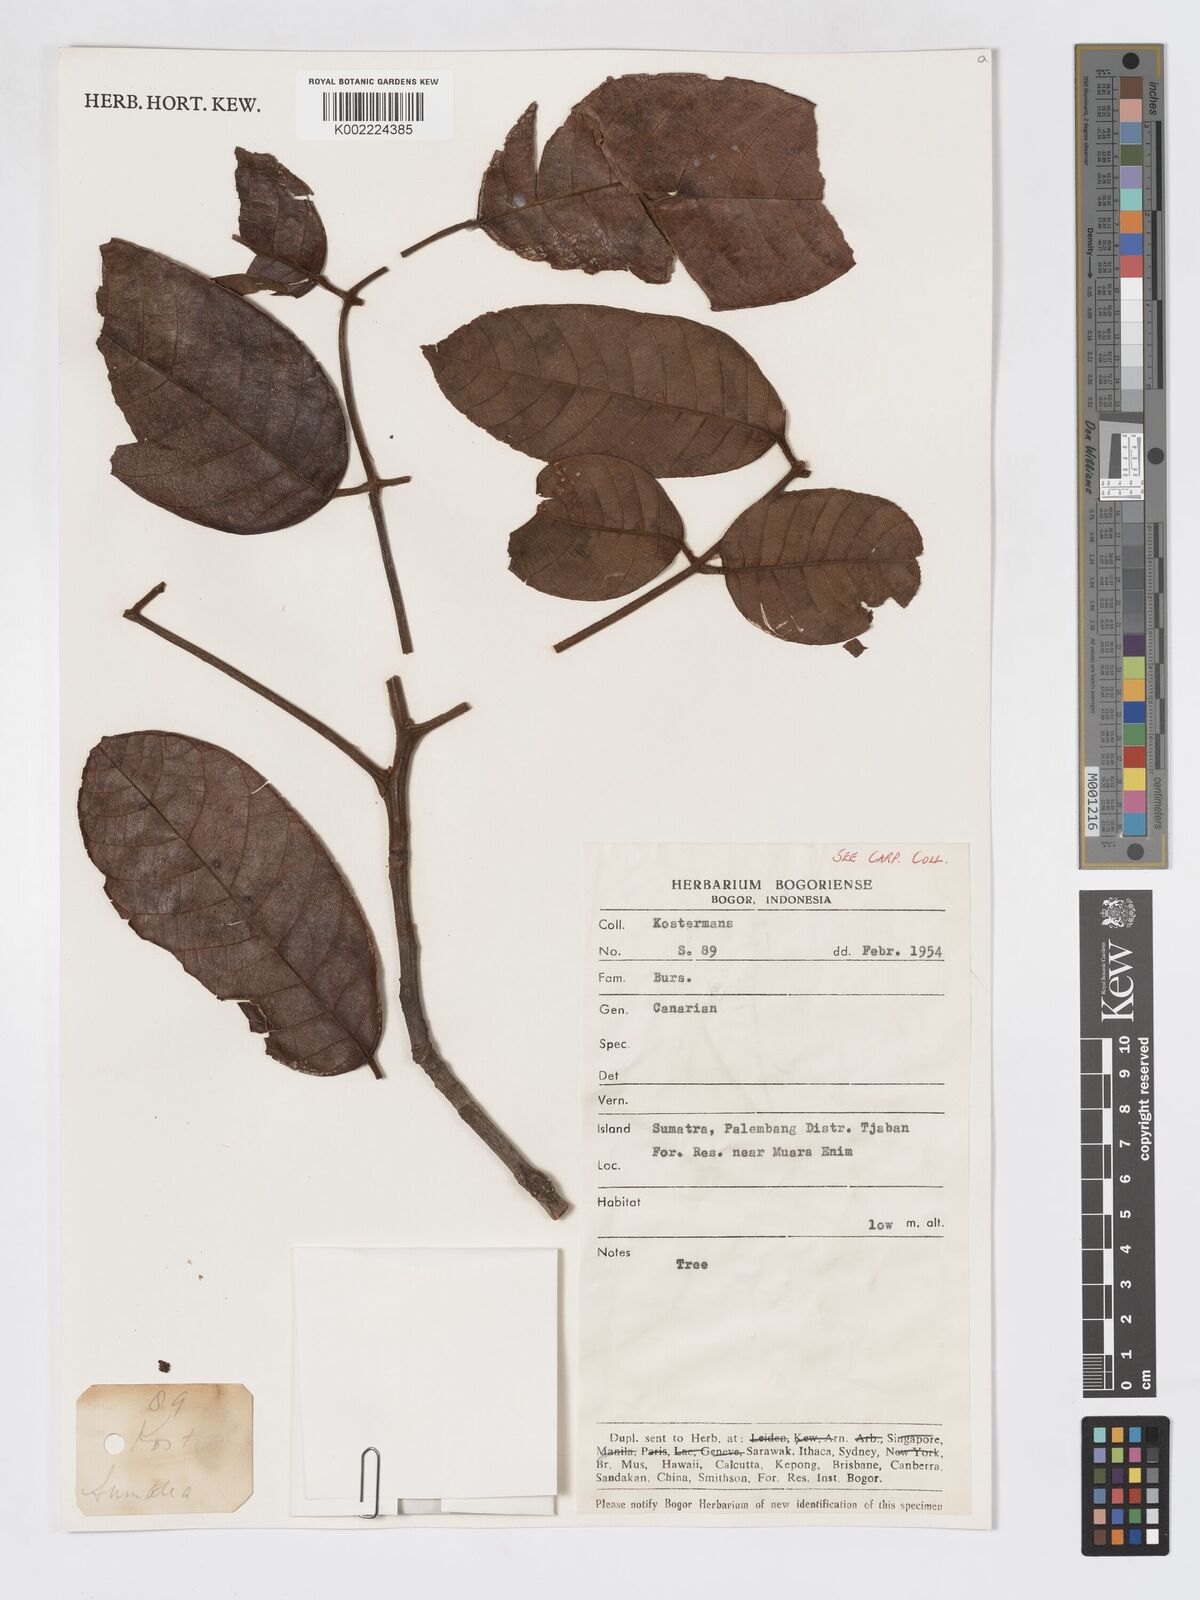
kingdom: Plantae
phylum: Tracheophyta
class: Magnoliopsida
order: Sapindales
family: Burseraceae
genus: Canarium
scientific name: Canarium
